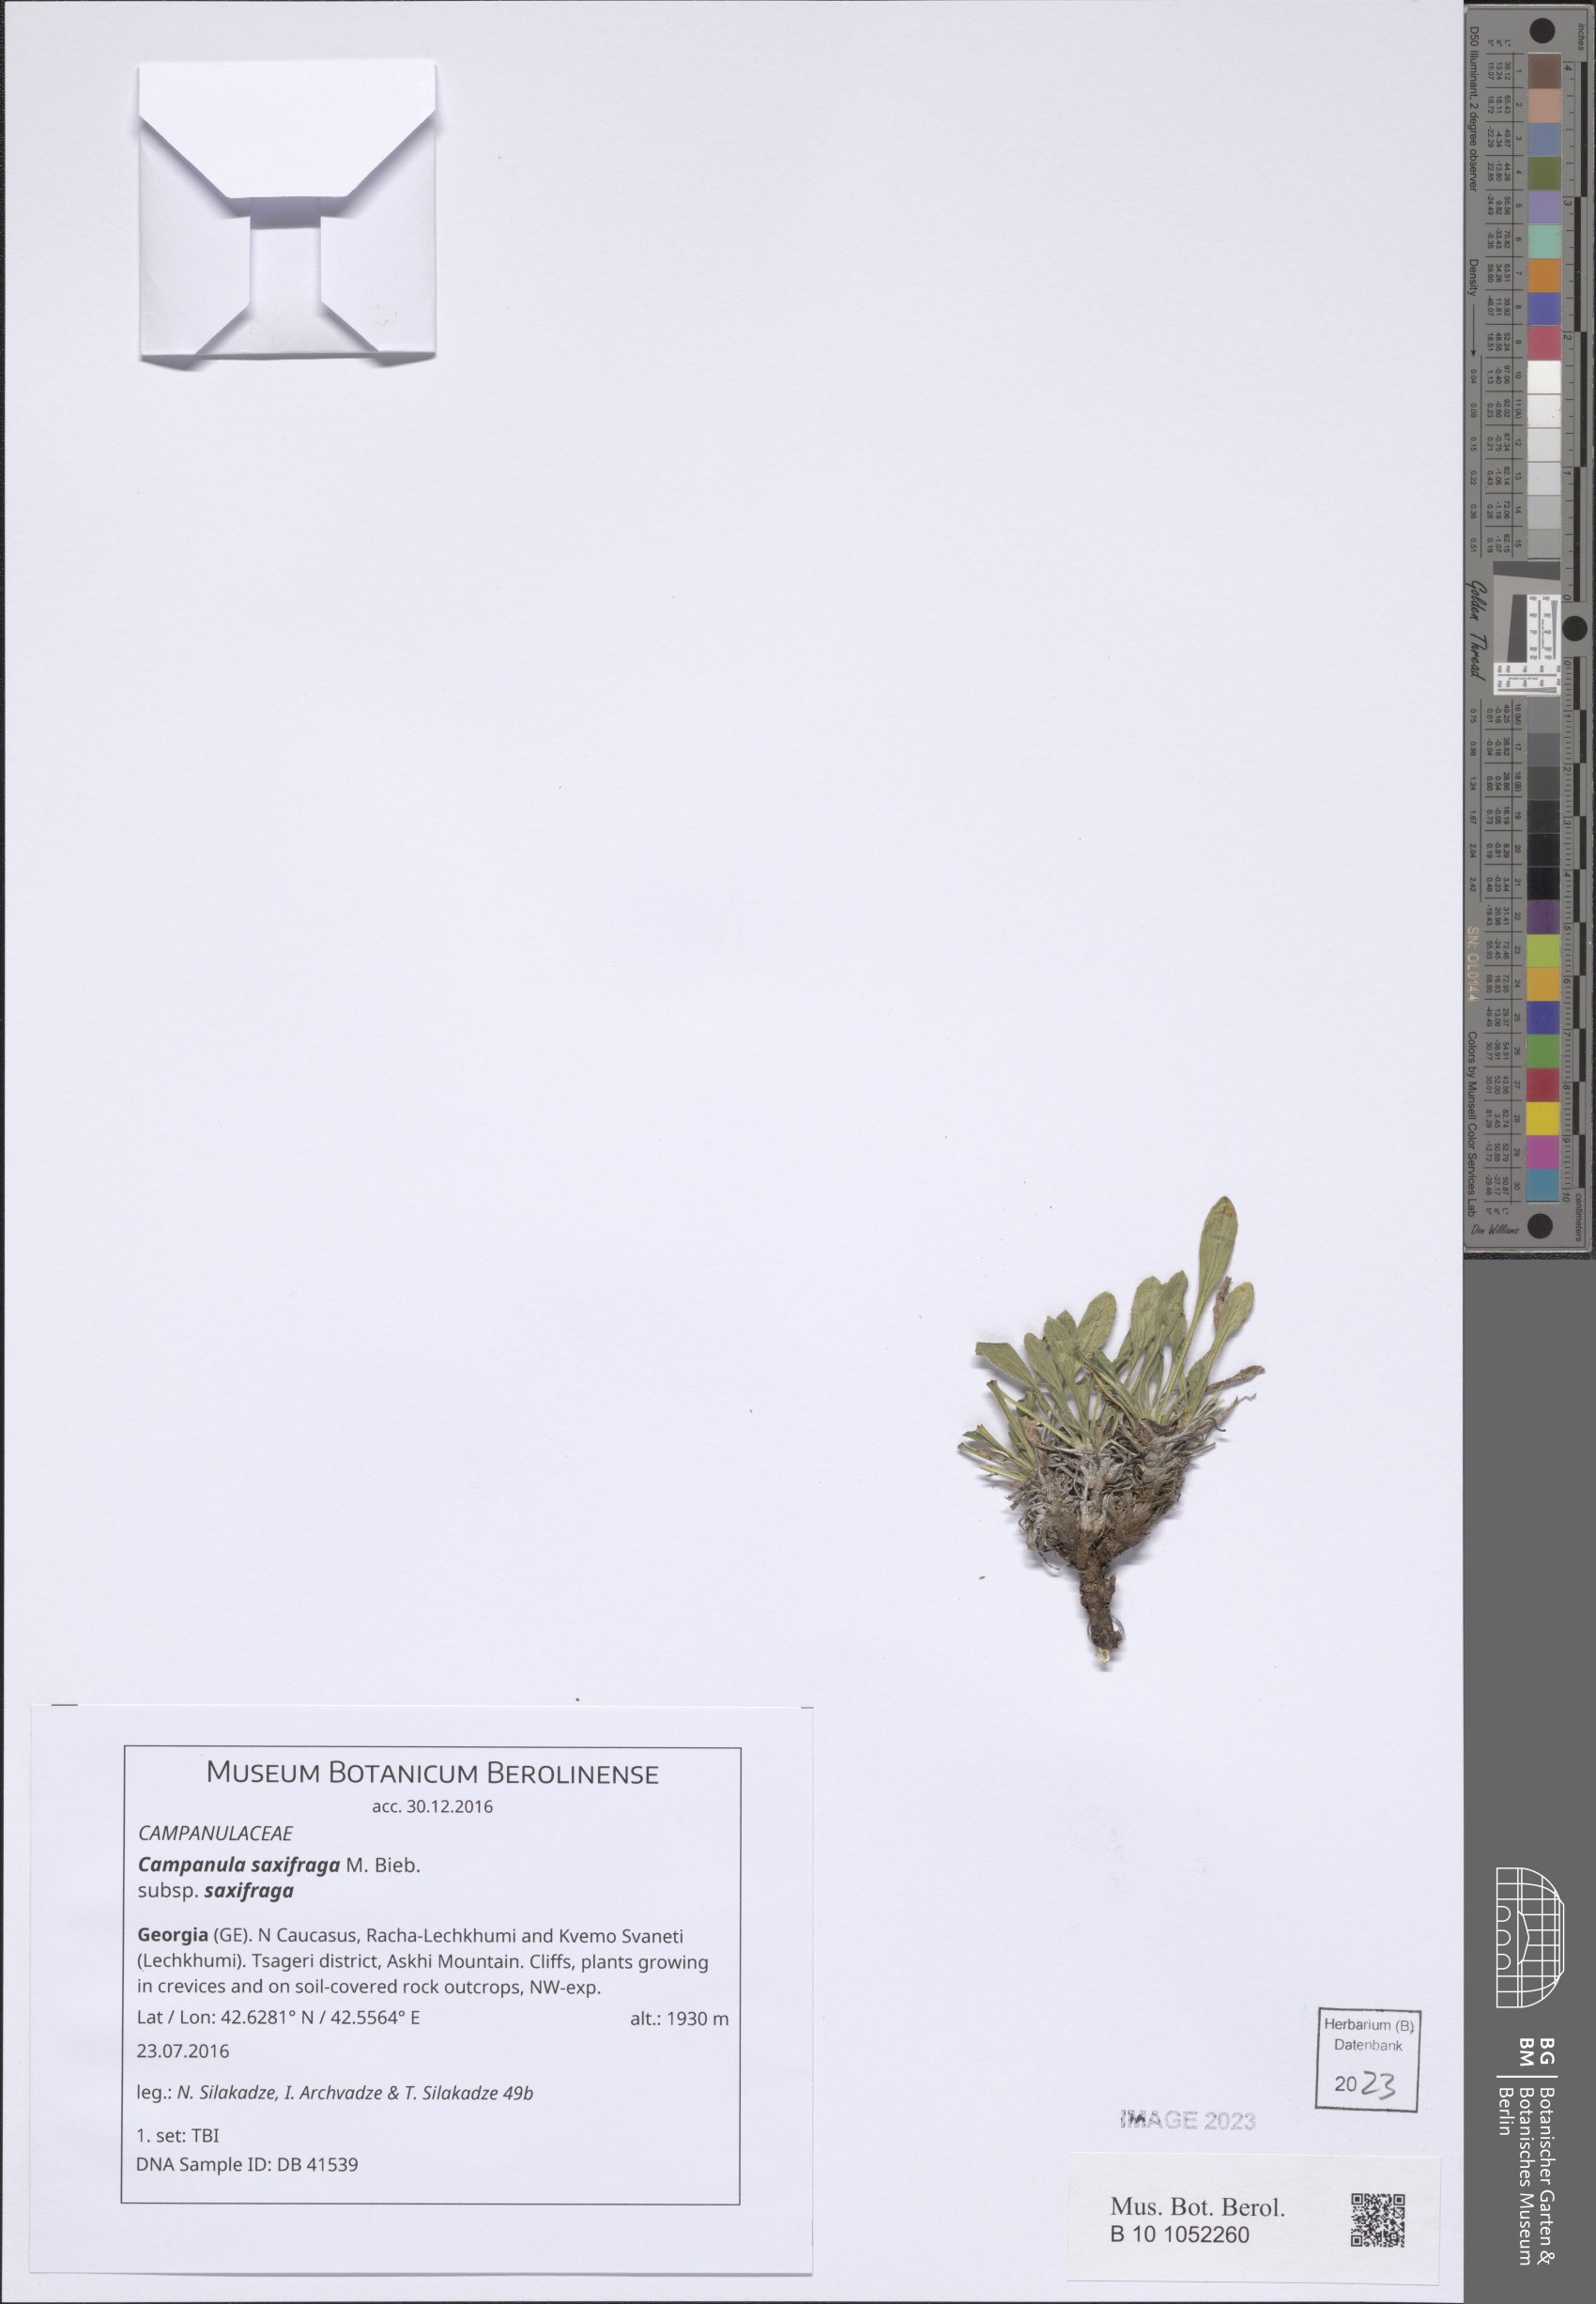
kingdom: Plantae
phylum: Tracheophyta
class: Magnoliopsida
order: Asterales
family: Campanulaceae
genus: Campanula
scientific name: Campanula saxifraga
